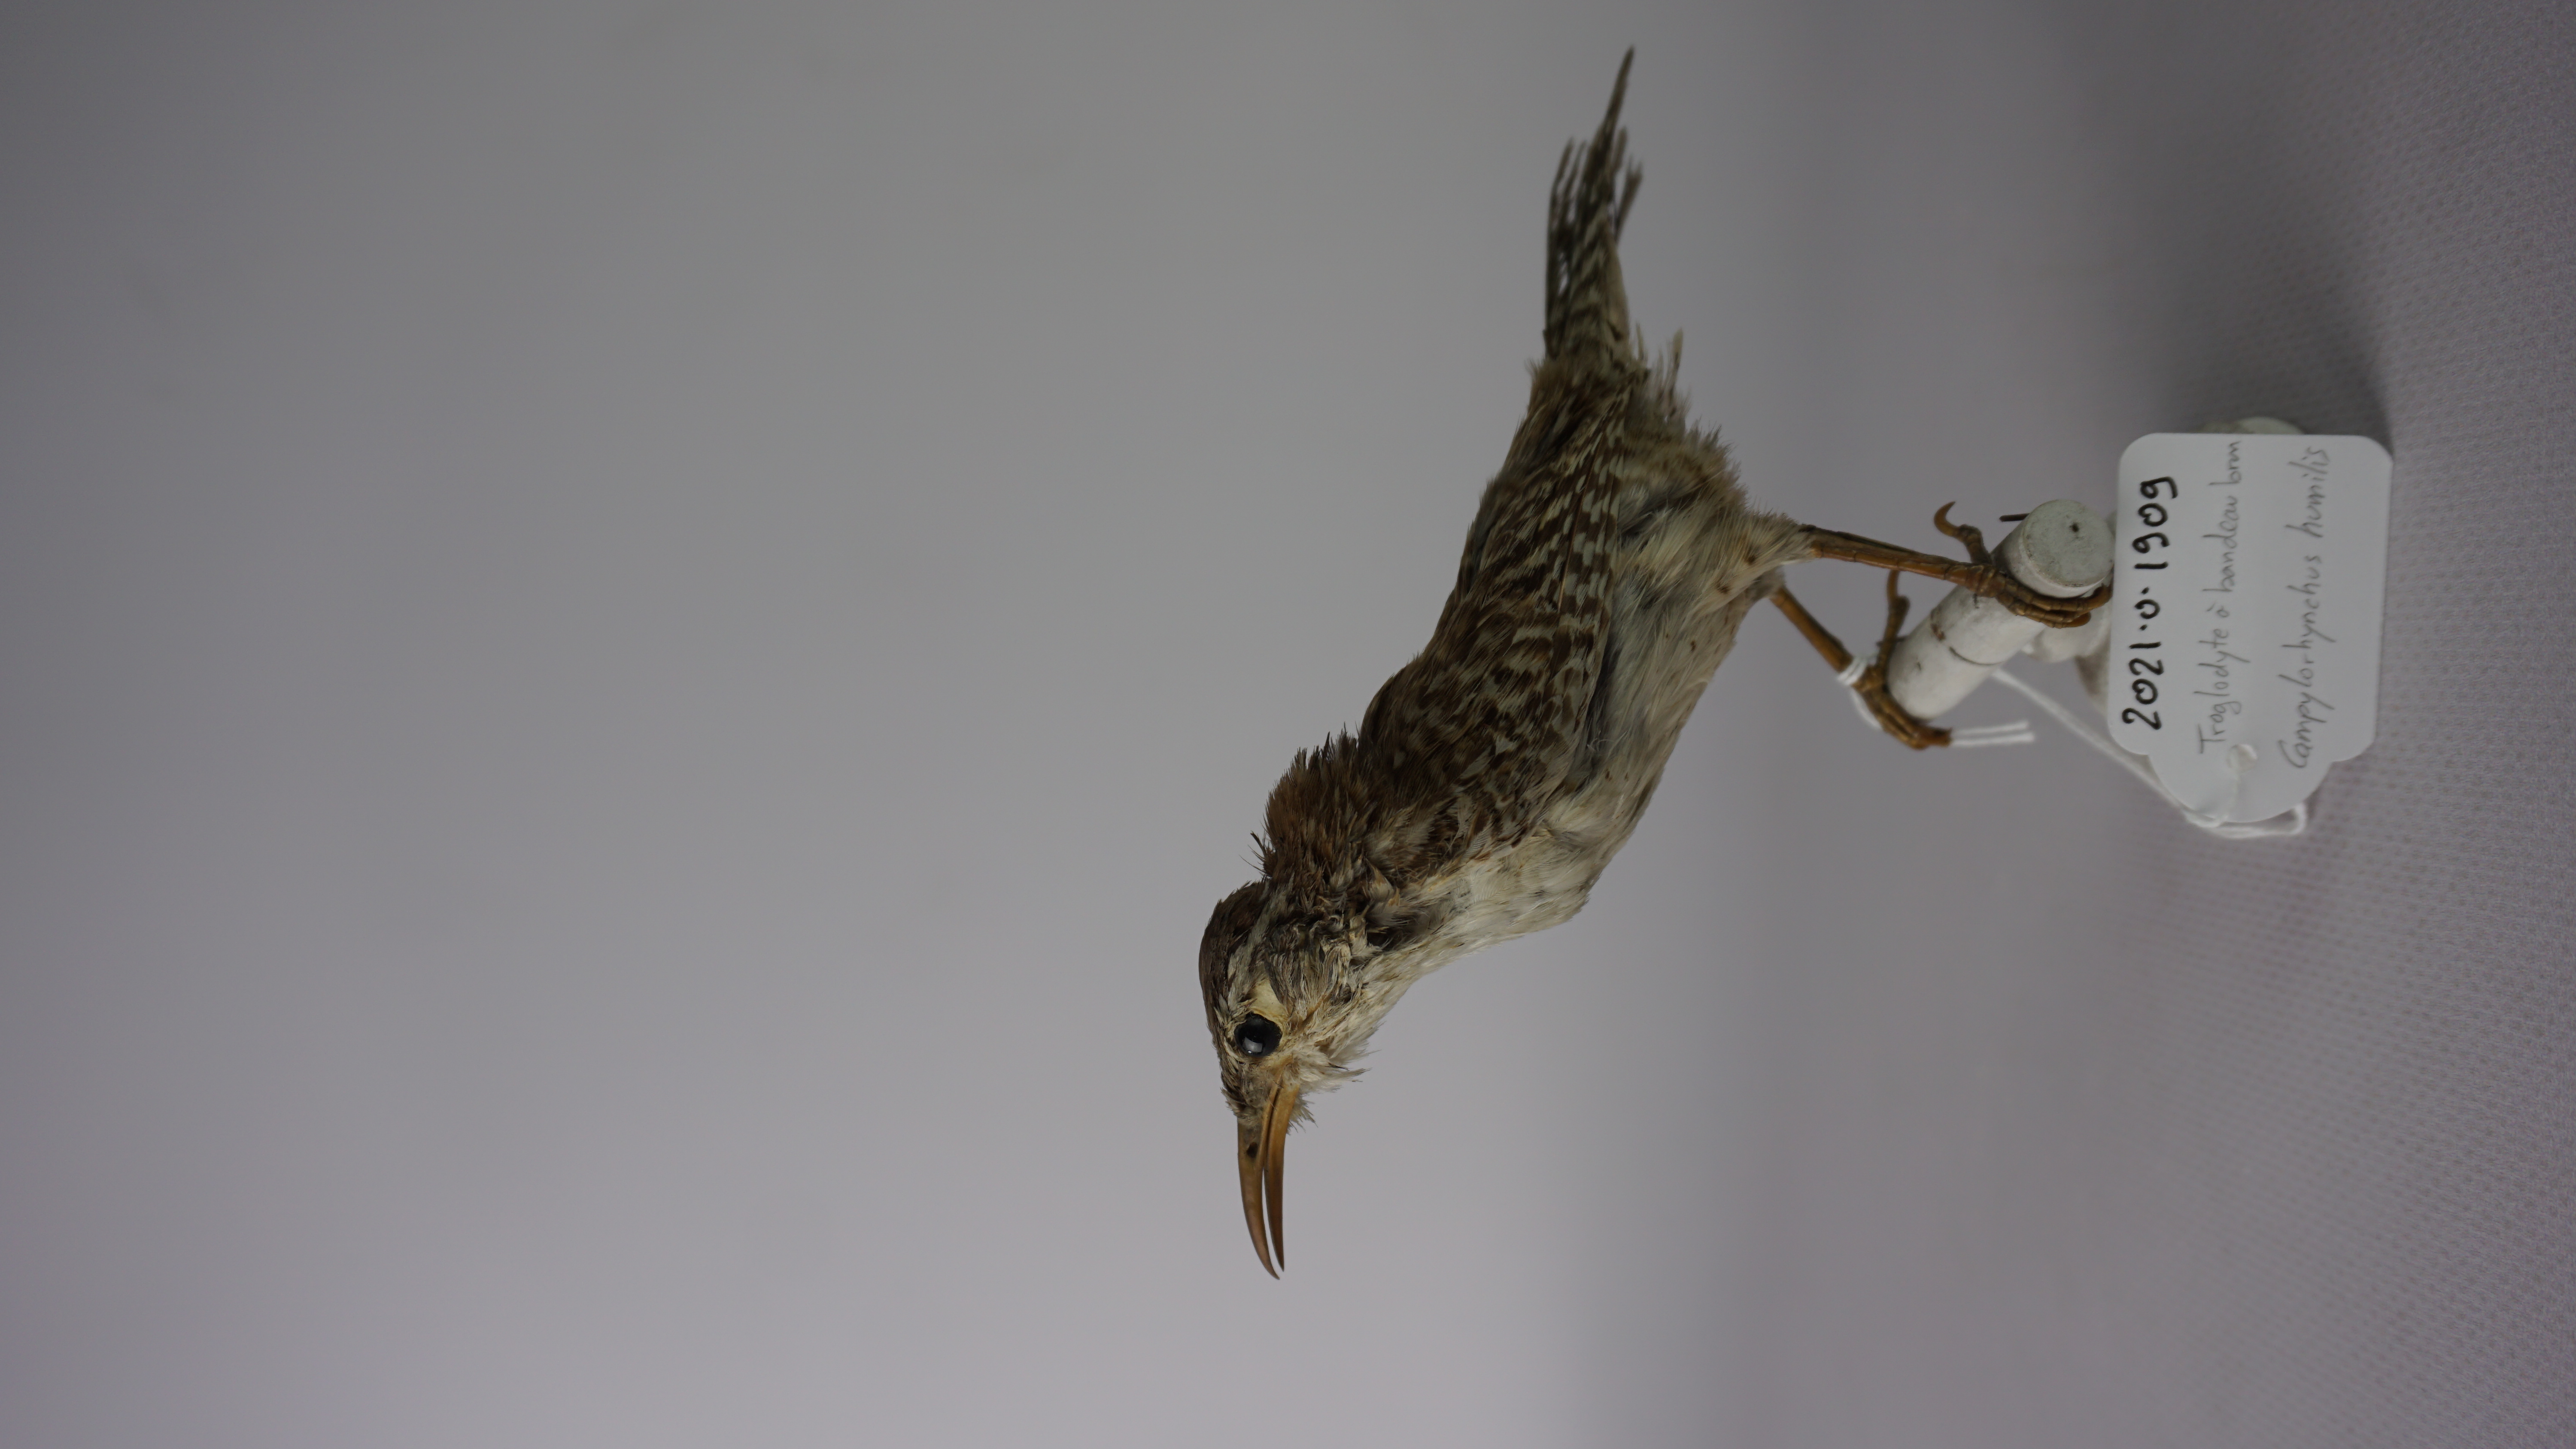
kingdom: Animalia
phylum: Chordata
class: Aves
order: Passeriformes
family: Troglodytidae
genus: Campylorhynchus
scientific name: Campylorhynchus humilis
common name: Sclater's wren
